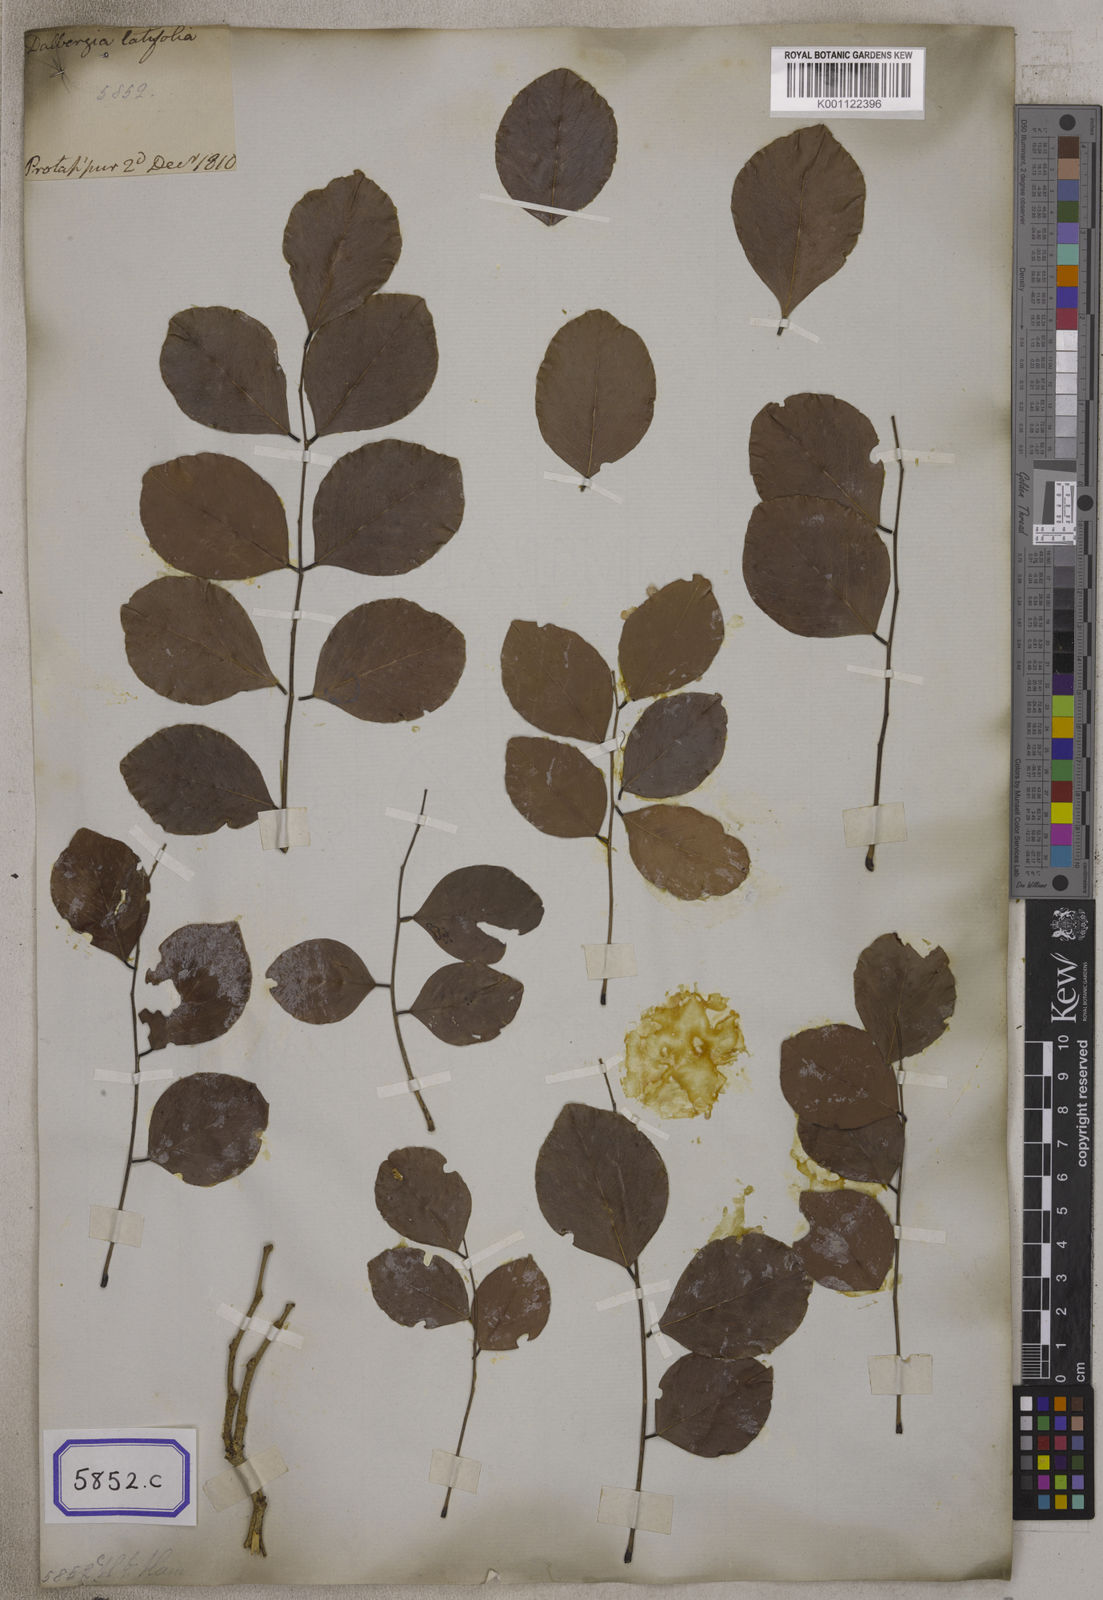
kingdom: Plantae
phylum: Tracheophyta
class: Magnoliopsida
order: Fabales
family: Fabaceae
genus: Dalbergia
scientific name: Dalbergia latifolia
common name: Bombay blackwood
